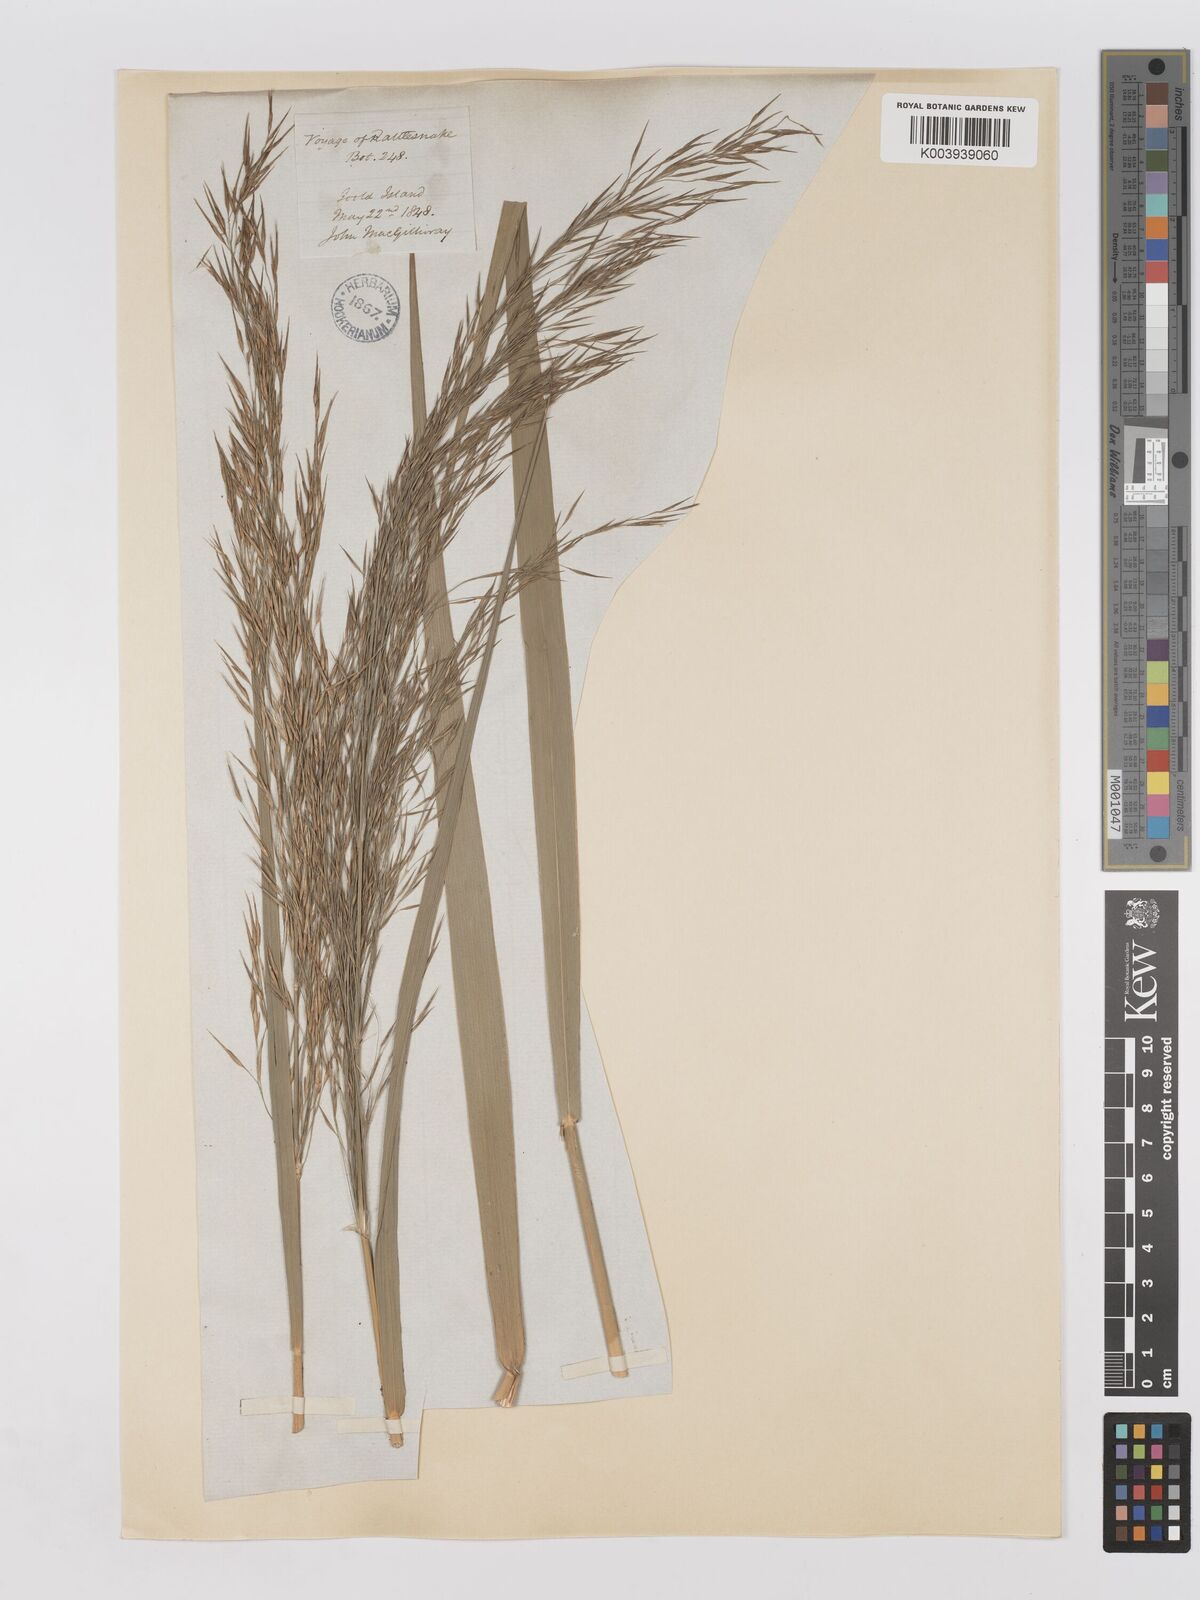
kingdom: Plantae
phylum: Tracheophyta
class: Liliopsida
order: Poales
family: Poaceae
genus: Phragmites
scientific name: Phragmites karka
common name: Tropical reed
